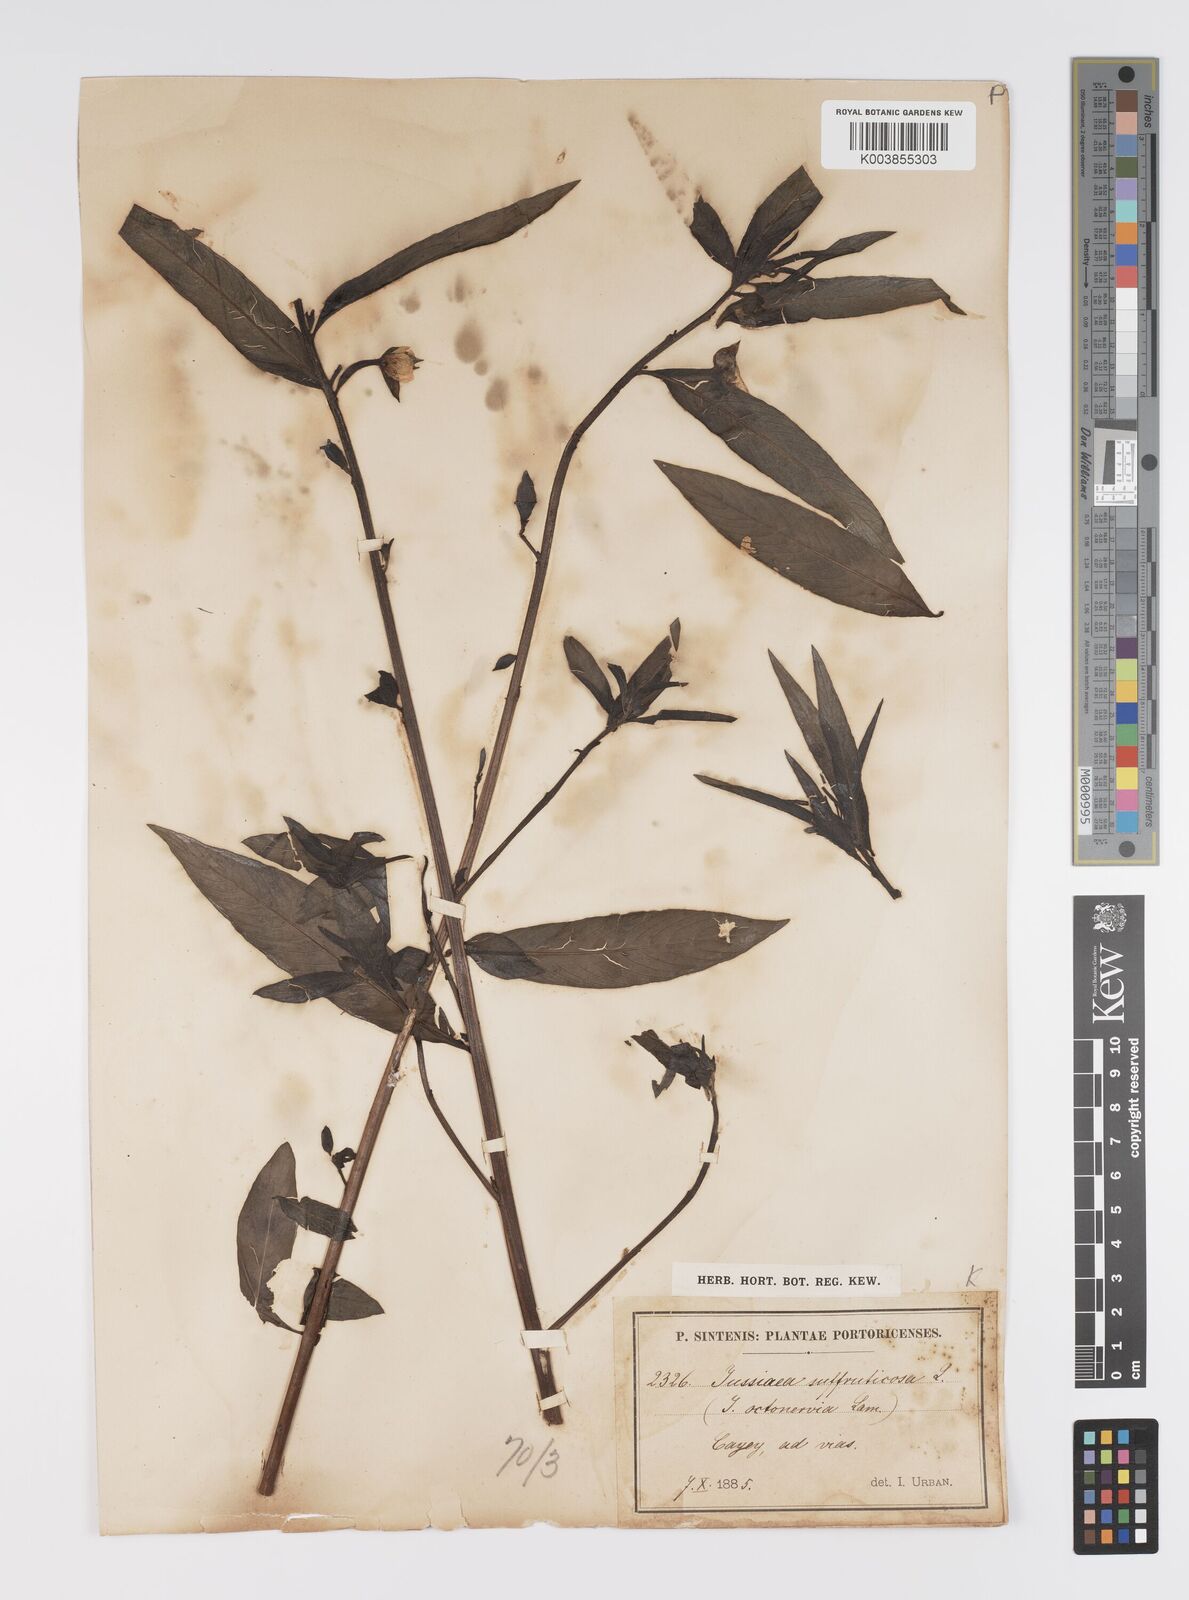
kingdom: Plantae
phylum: Tracheophyta
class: Magnoliopsida
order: Myrtales
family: Onagraceae
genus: Ludwigia
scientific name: Ludwigia
